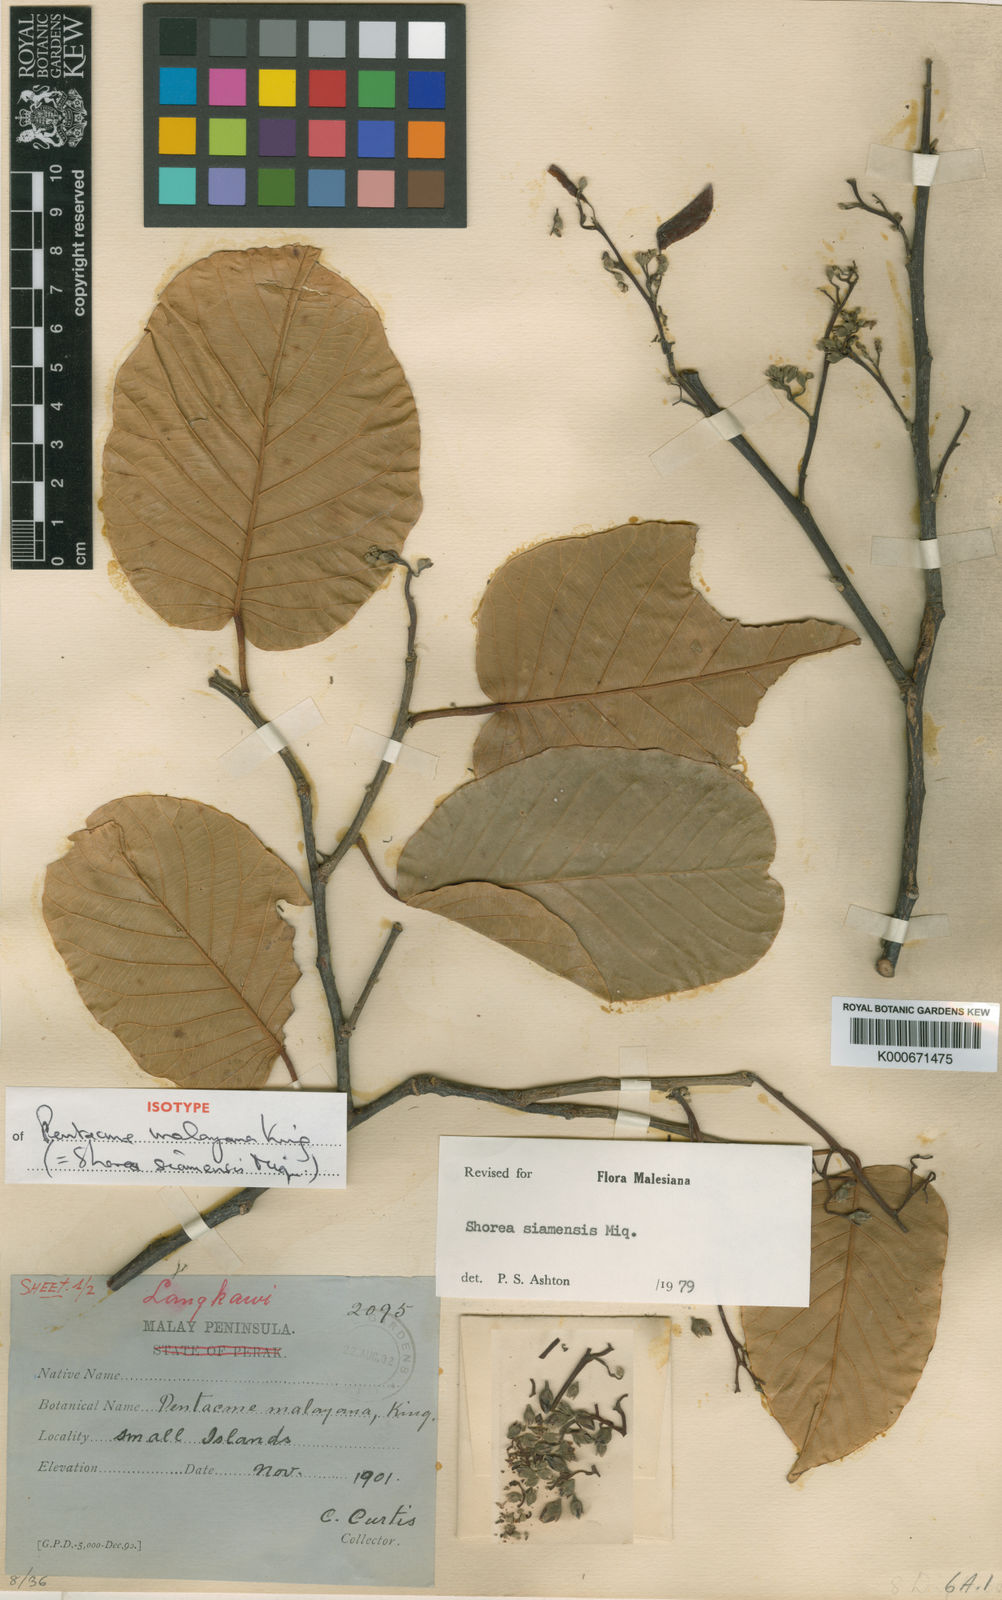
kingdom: Plantae
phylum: Tracheophyta
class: Magnoliopsida
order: Malvales
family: Dipterocarpaceae
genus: Pentacme
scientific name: Pentacme siamensis
